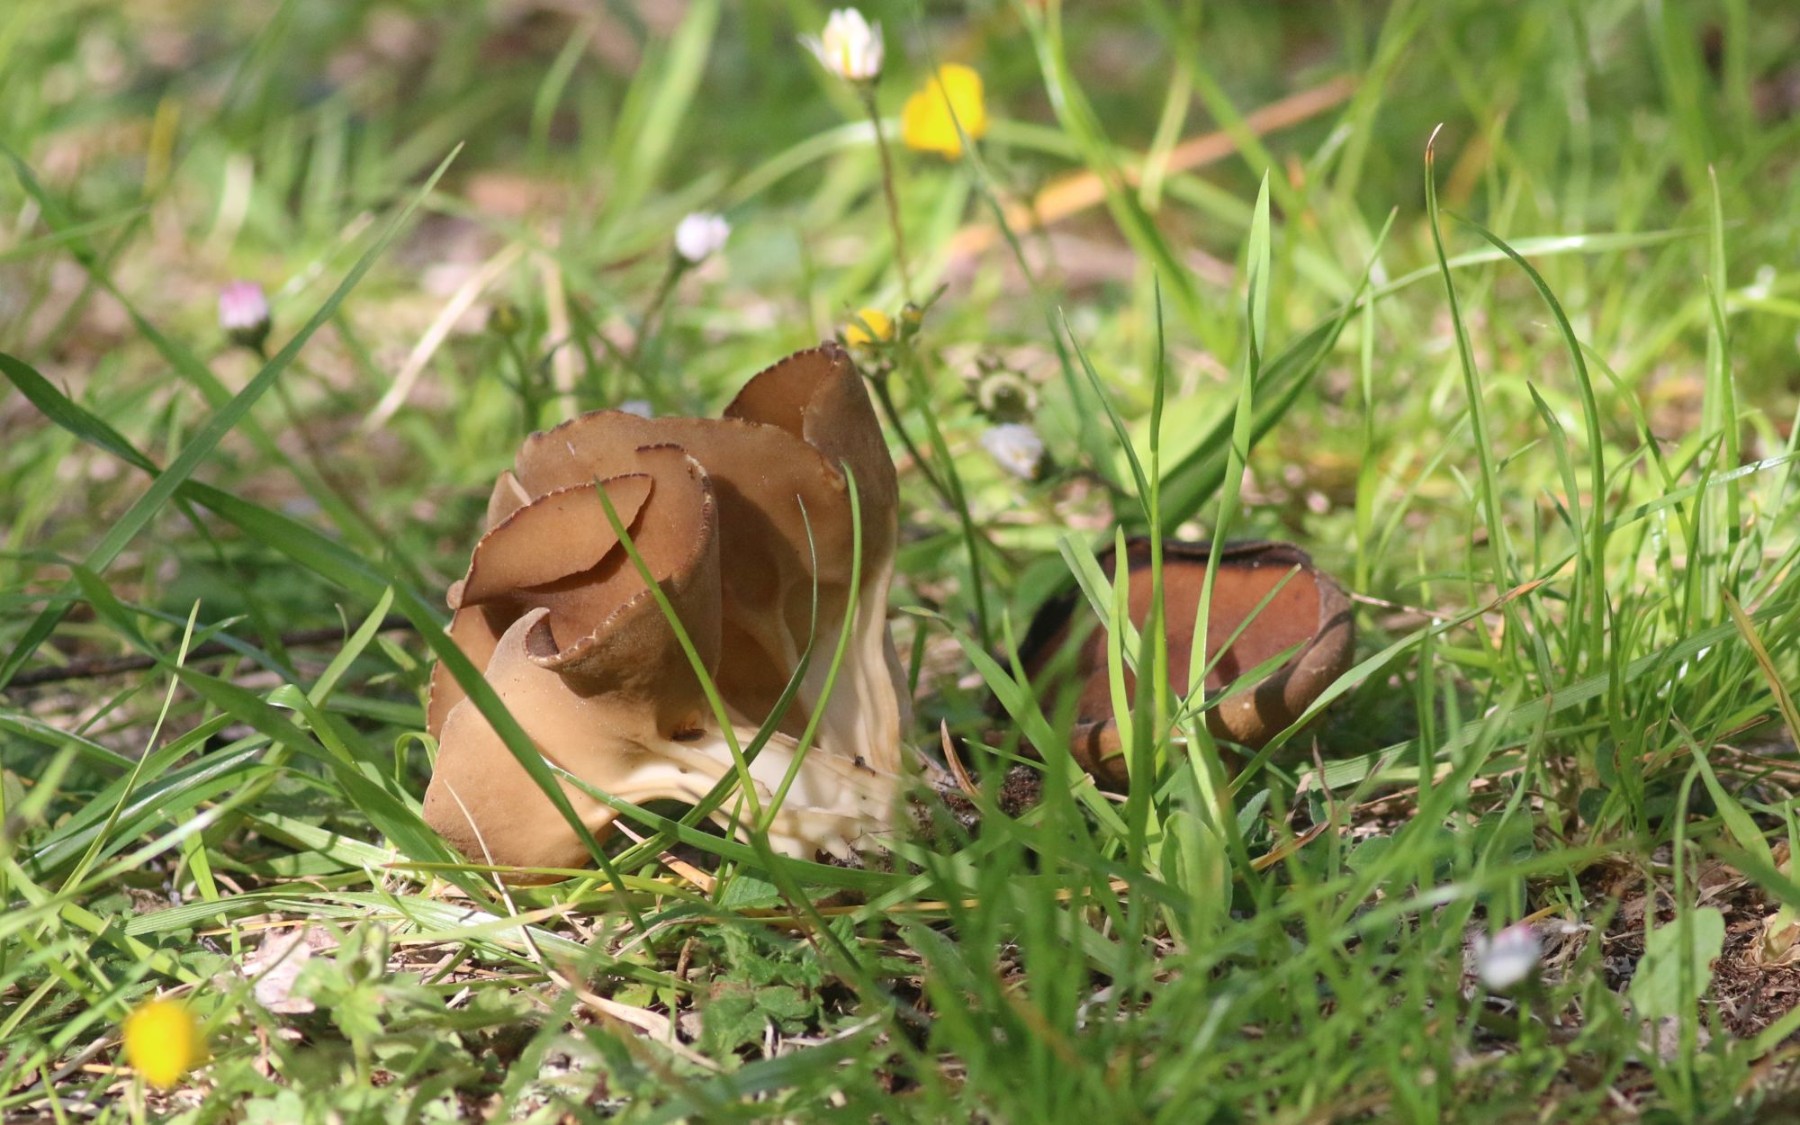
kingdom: Fungi
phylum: Ascomycota
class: Pezizomycetes
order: Pezizales
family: Helvellaceae
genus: Helvella
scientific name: Helvella acetabulum
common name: pokal-foldhat
